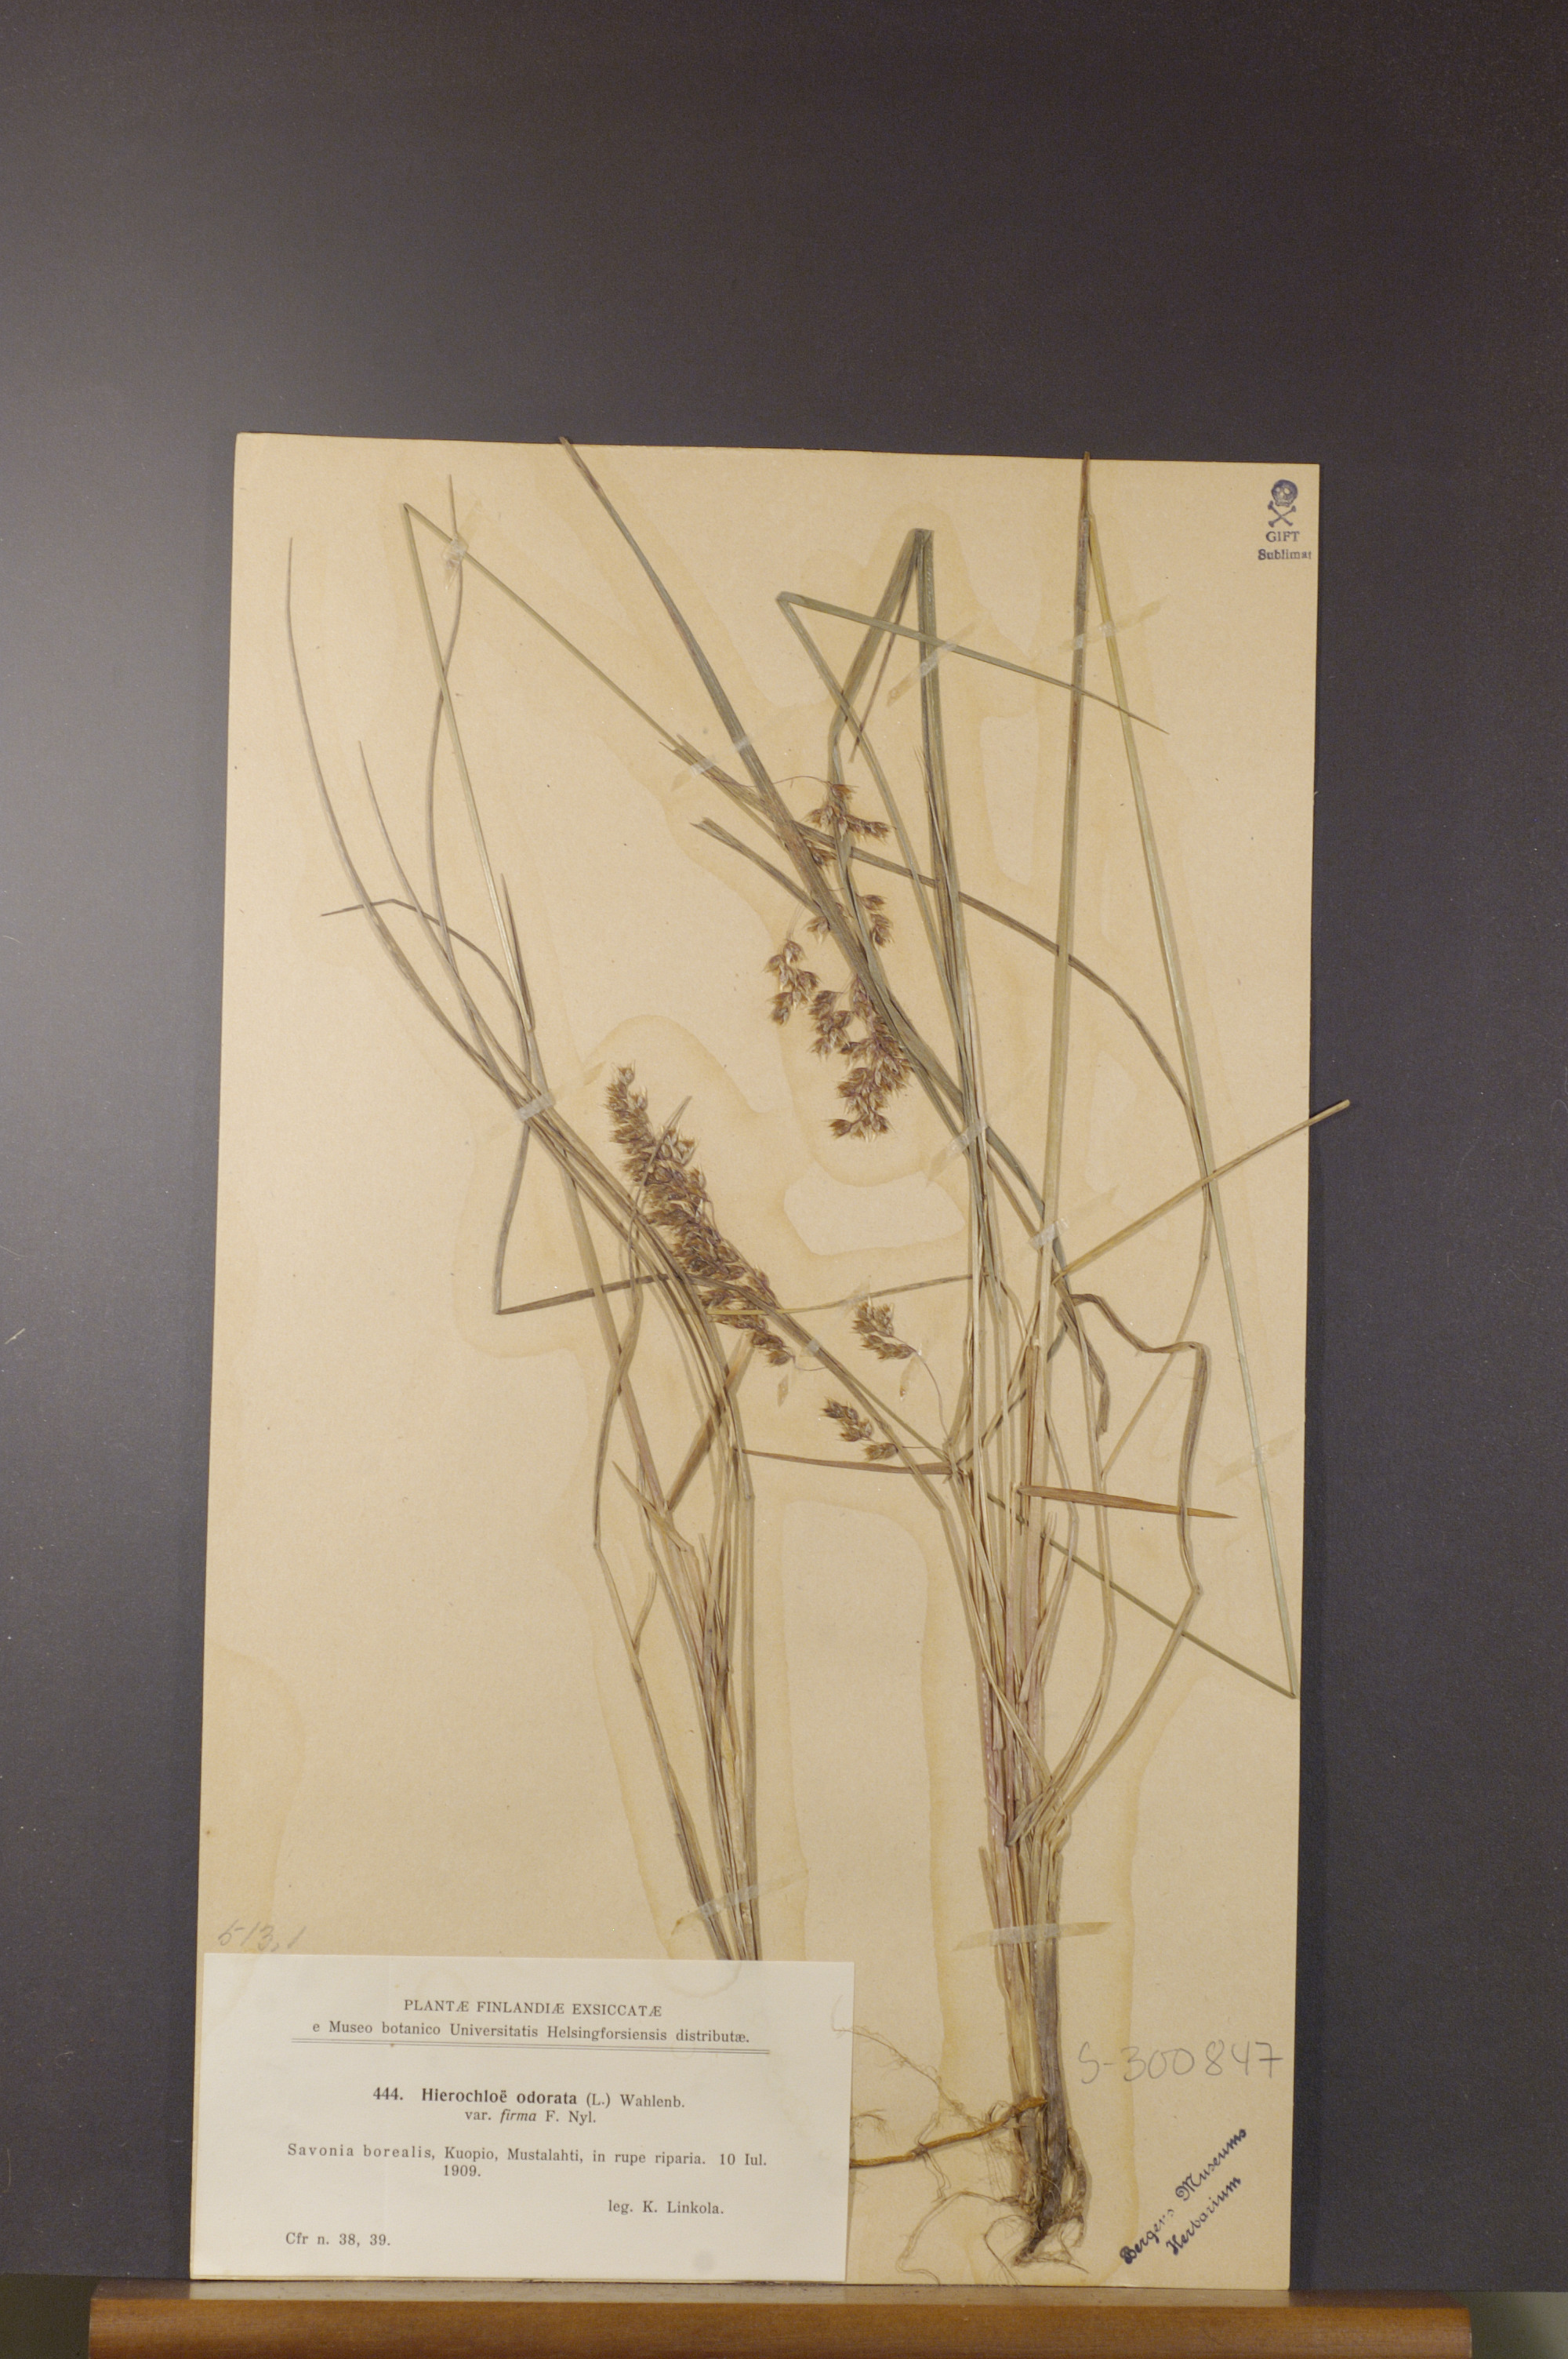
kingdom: Plantae
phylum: Tracheophyta
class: Liliopsida
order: Poales
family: Poaceae
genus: Anthoxanthum
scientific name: Anthoxanthum nitens
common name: Holy grass
